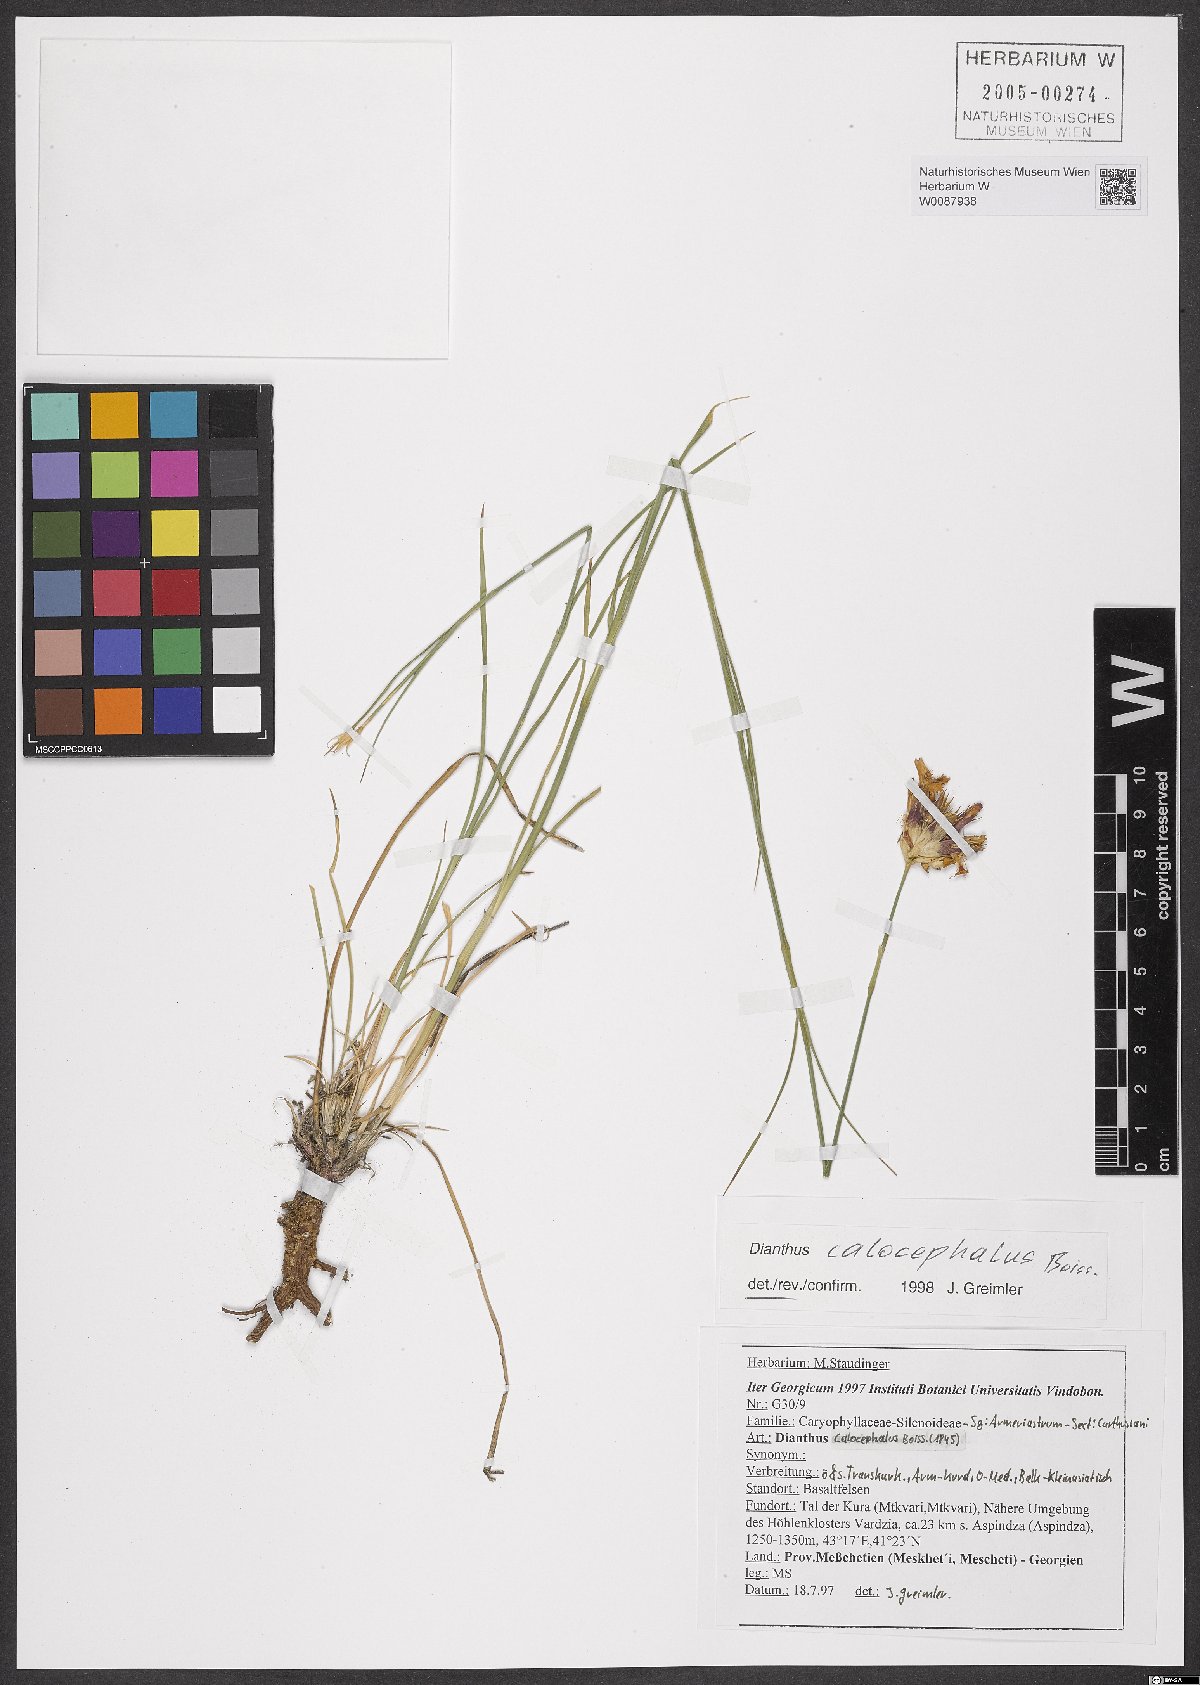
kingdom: Plantae
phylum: Tracheophyta
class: Magnoliopsida
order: Caryophyllales
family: Caryophyllaceae
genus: Dianthus
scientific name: Dianthus cruentus
